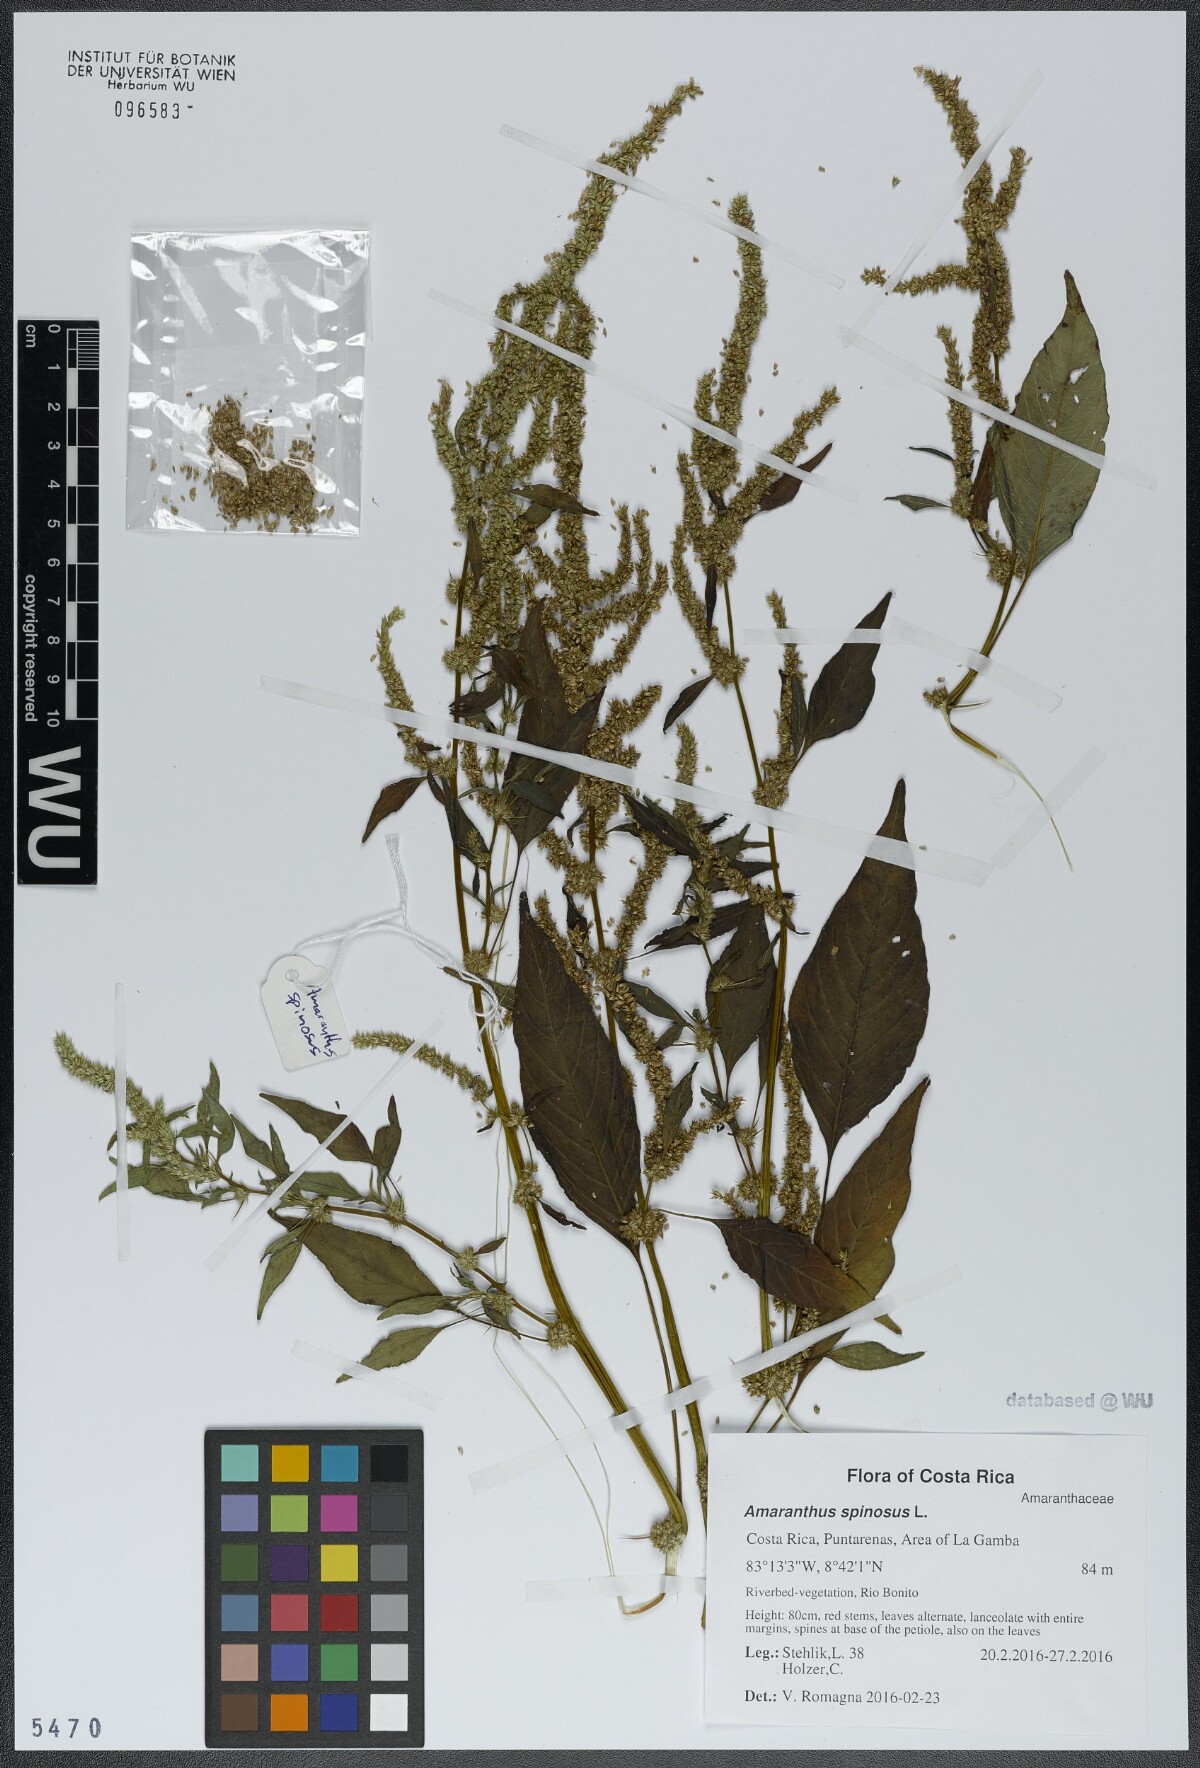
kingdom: Plantae
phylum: Tracheophyta
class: Magnoliopsida
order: Caryophyllales
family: Amaranthaceae
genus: Amaranthus
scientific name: Amaranthus spinosus
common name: Spiny amaranth
